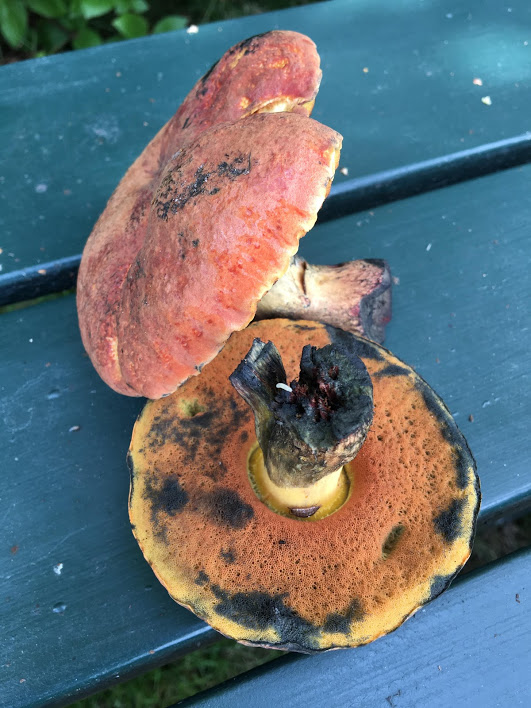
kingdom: Fungi
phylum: Basidiomycota
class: Agaricomycetes
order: Boletales
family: Boletaceae
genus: Suillellus
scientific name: Suillellus queletii
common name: glatstokket indigorørhat
